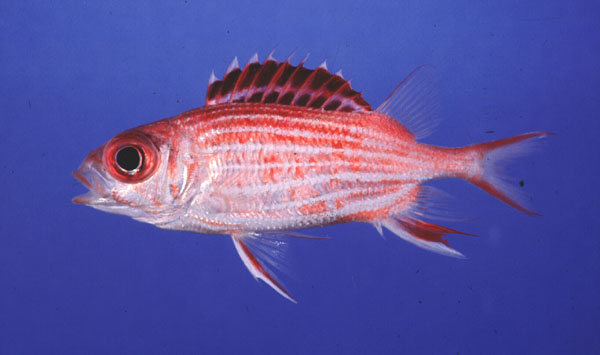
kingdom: Animalia
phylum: Chordata
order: Beryciformes
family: Holocentridae
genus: Sargocentron
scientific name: Sargocentron diadema
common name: Crown squirrelfish
